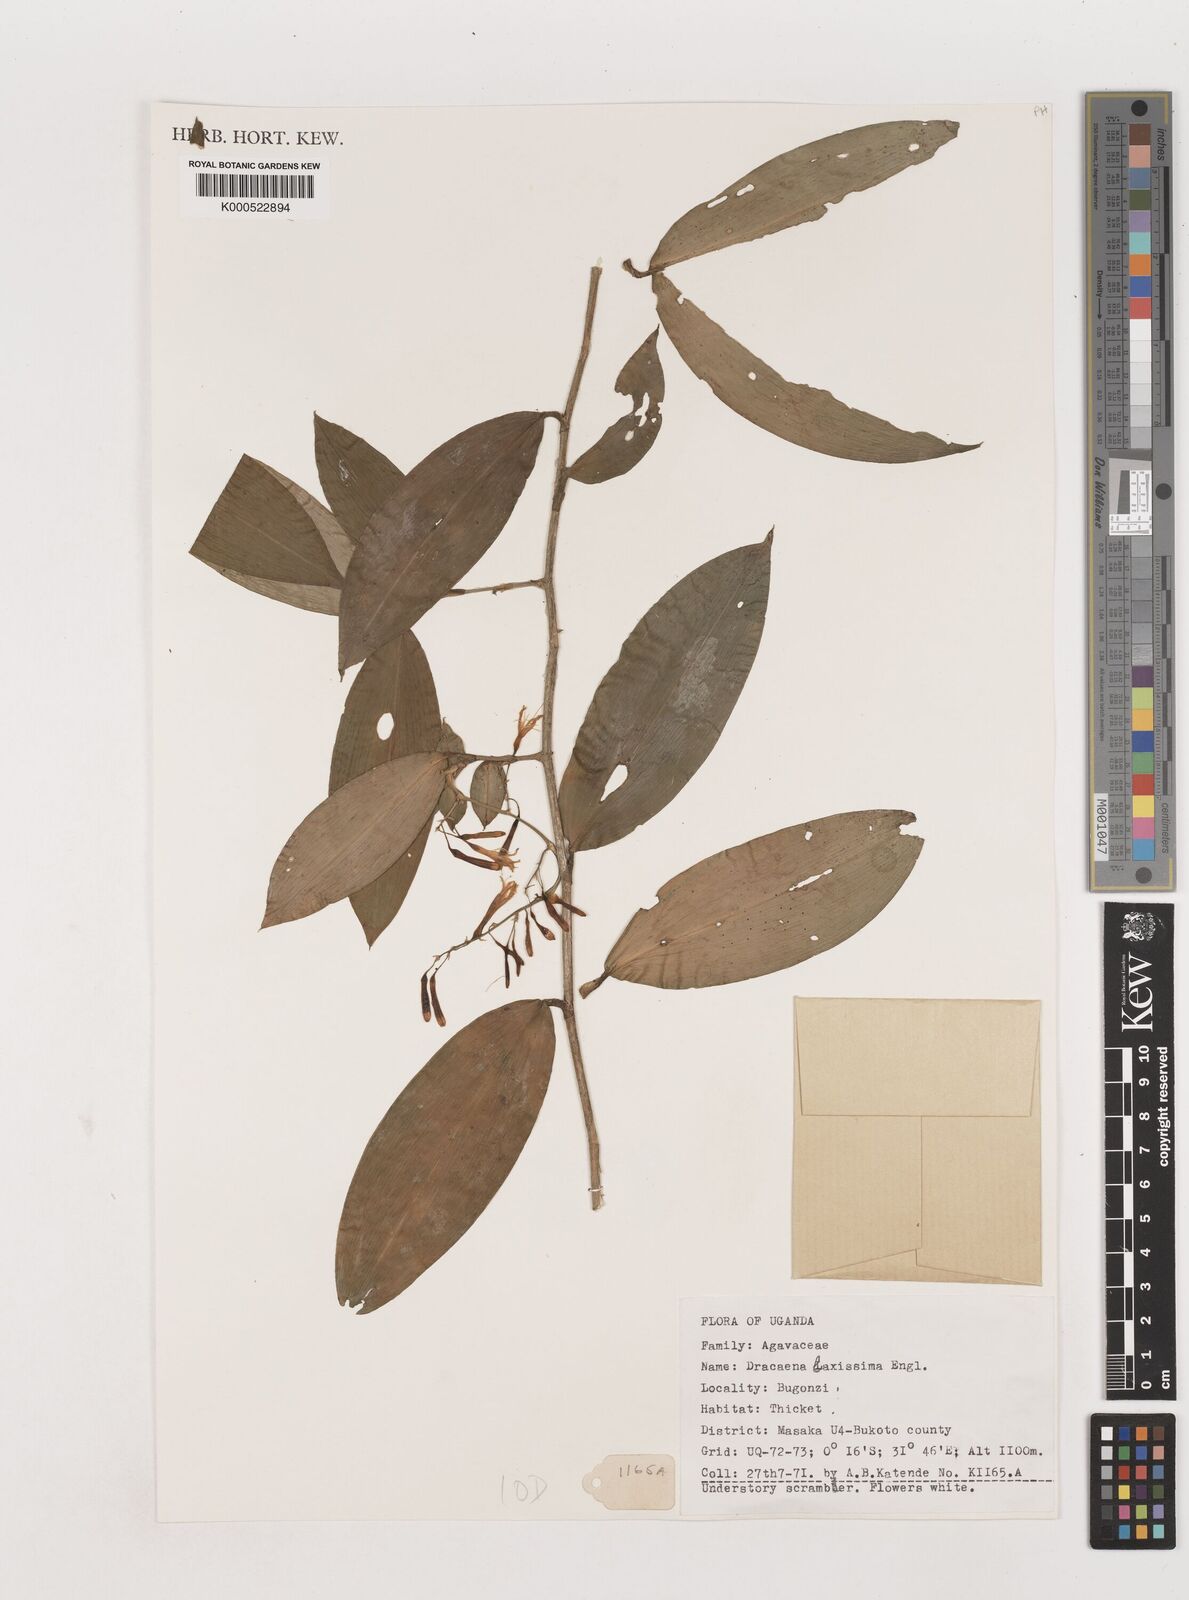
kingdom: Plantae
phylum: Tracheophyta
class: Liliopsida
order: Asparagales
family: Asparagaceae
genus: Dracaena
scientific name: Dracaena laxissima
